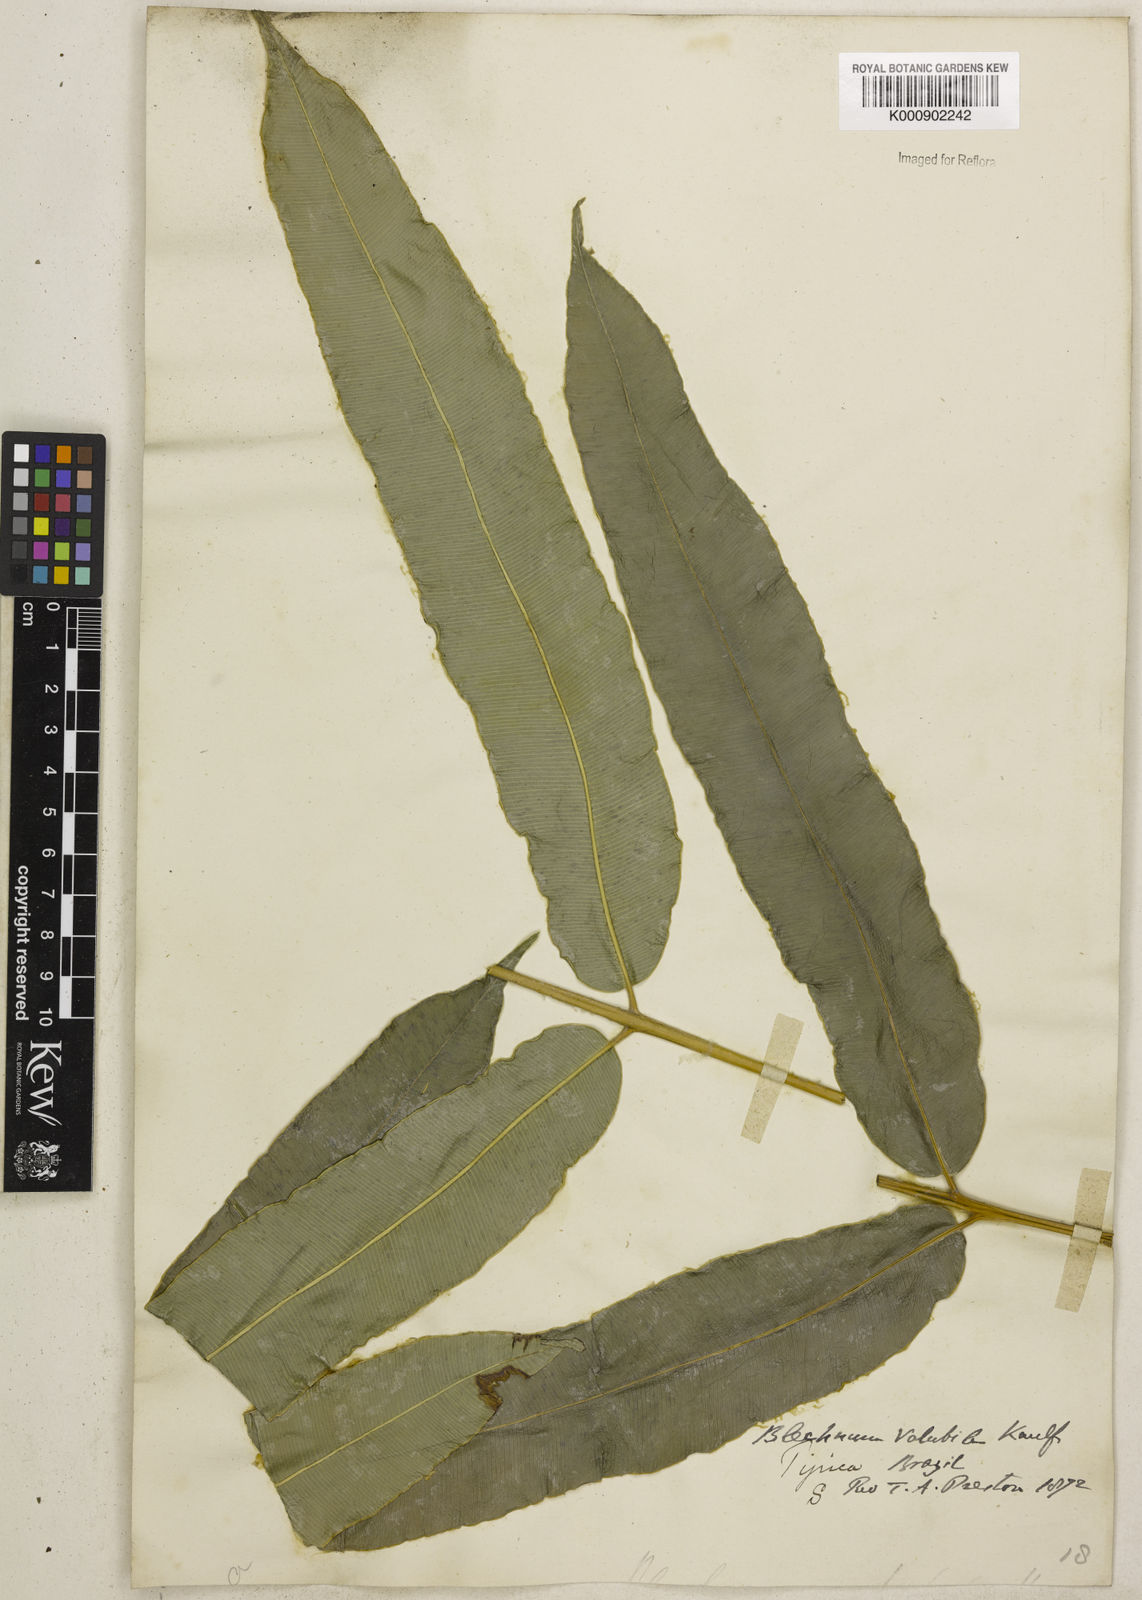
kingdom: Plantae
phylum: Tracheophyta
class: Polypodiopsida
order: Polypodiales
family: Blechnaceae
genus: Salpichlaena
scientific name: Salpichlaena volubilis
